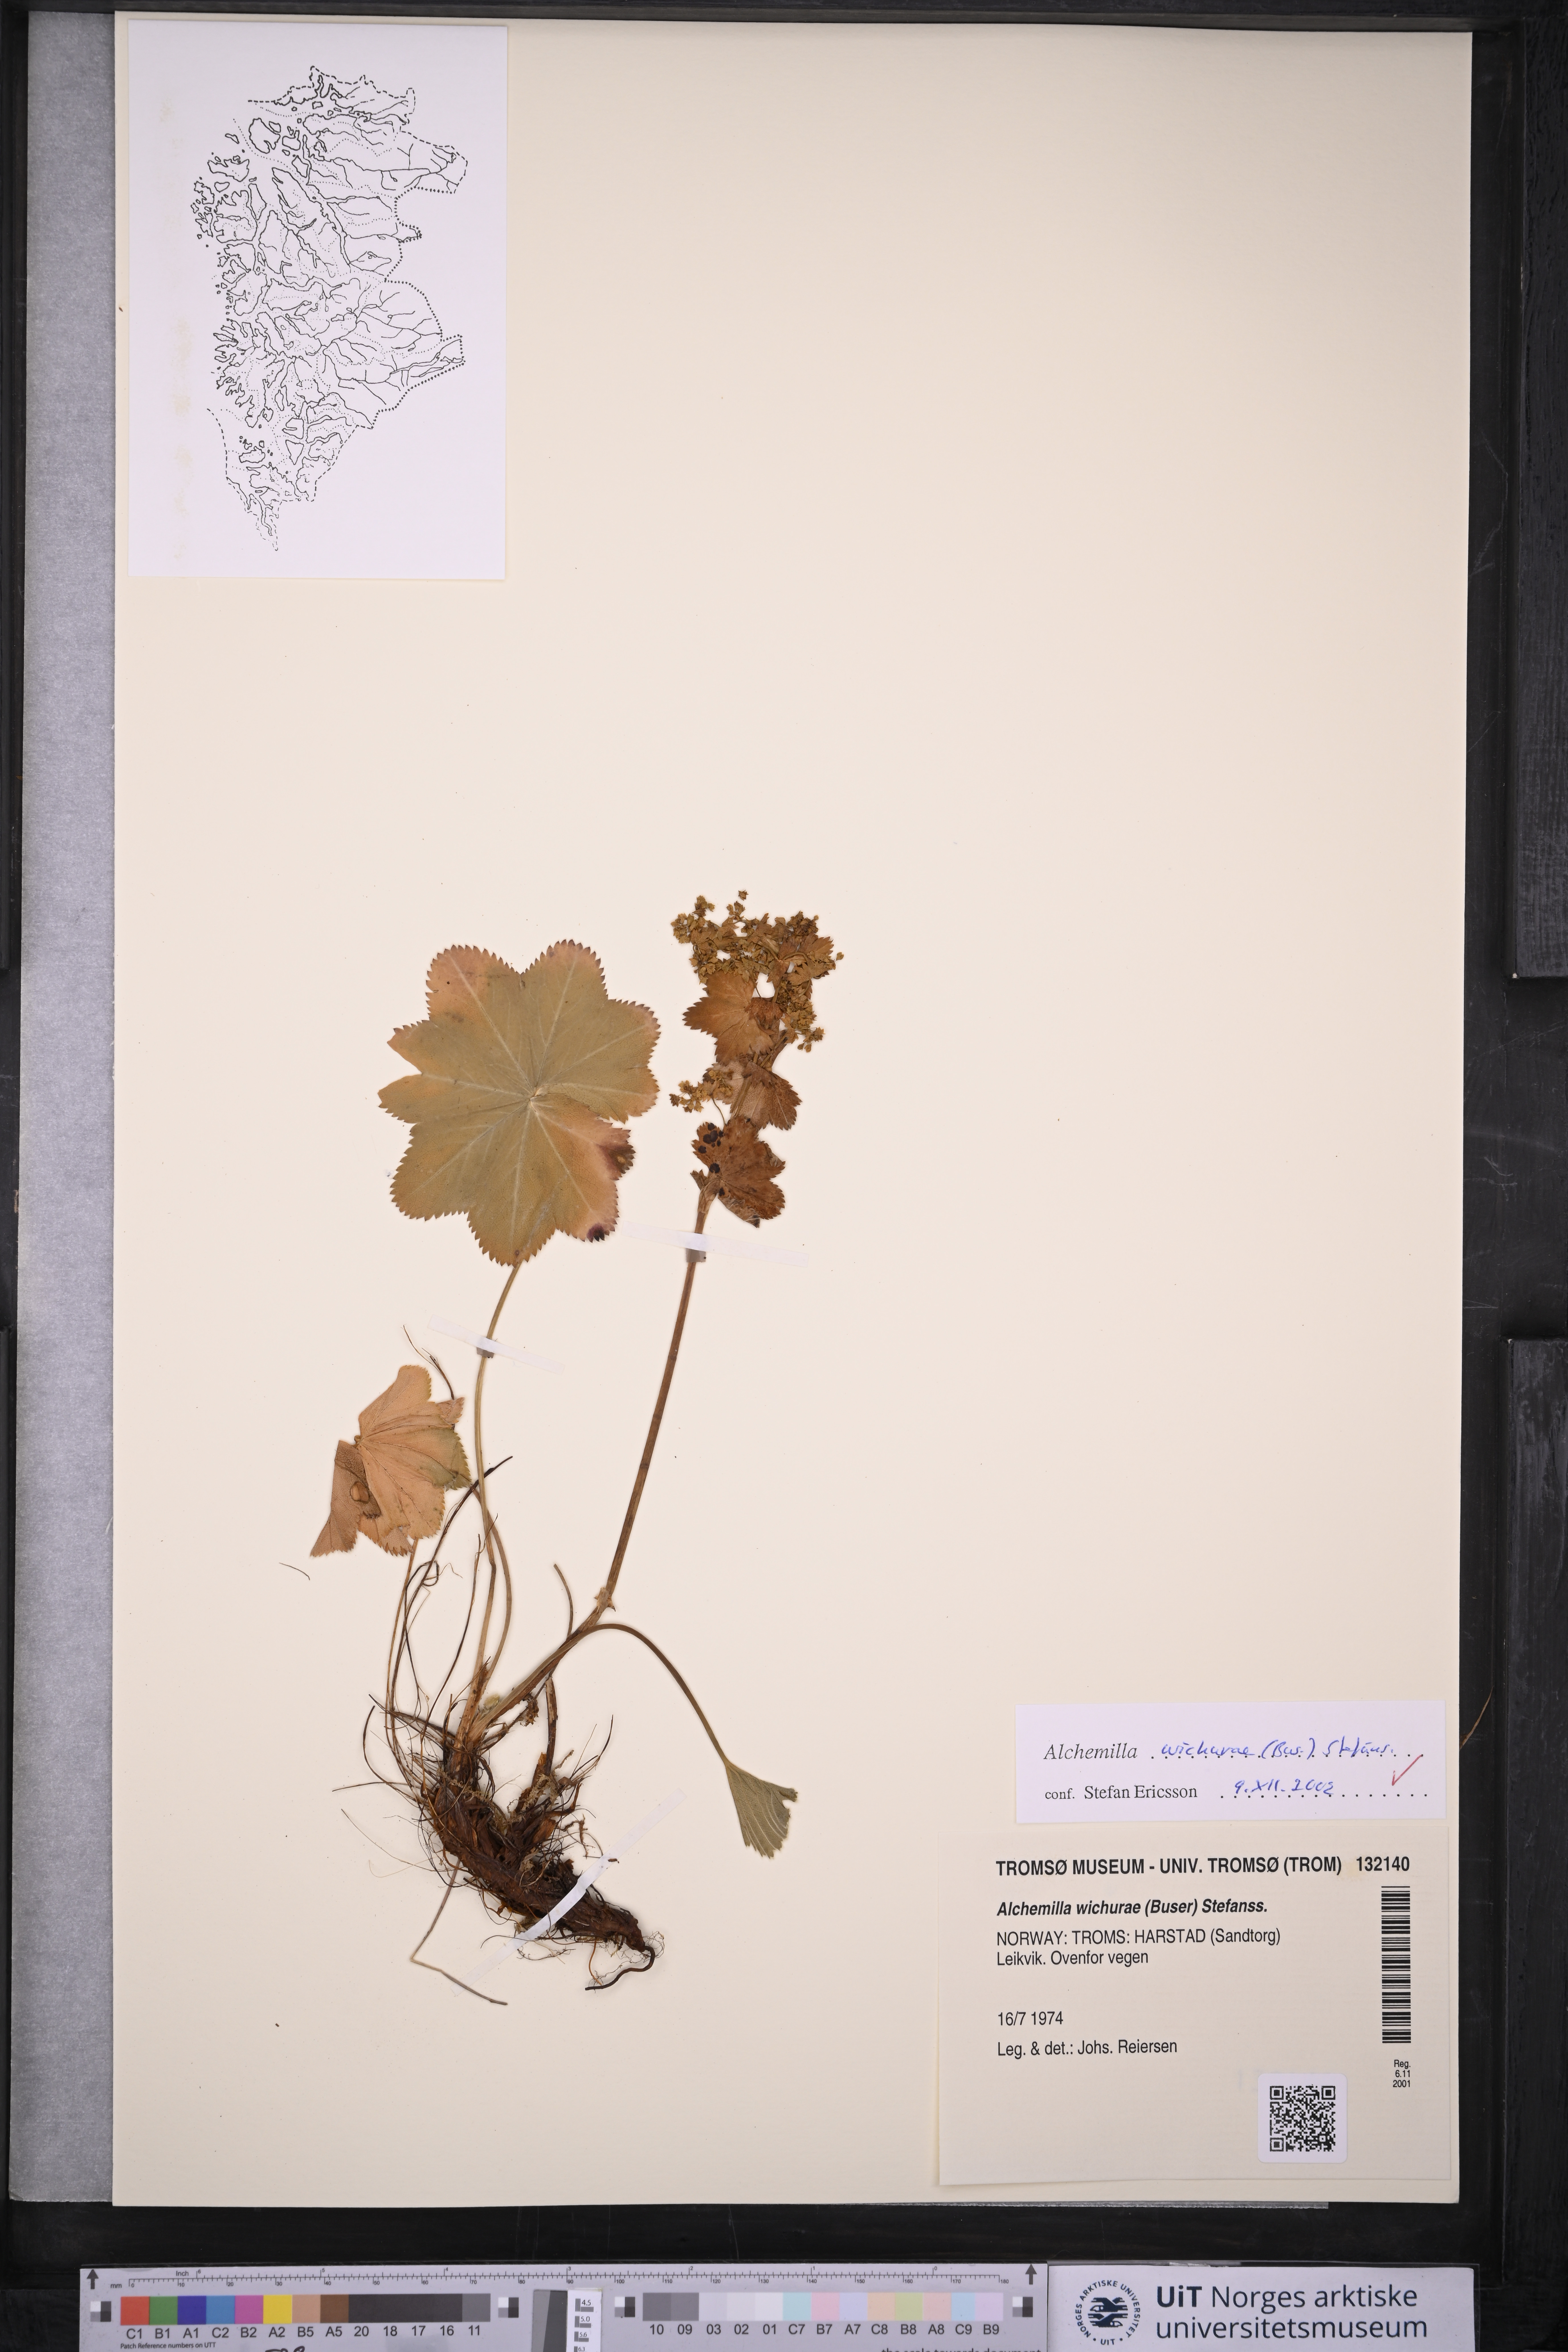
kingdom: Plantae
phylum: Tracheophyta
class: Magnoliopsida
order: Rosales
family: Rosaceae
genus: Alchemilla
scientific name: Alchemilla wichurae
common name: Rock lady's mantle
